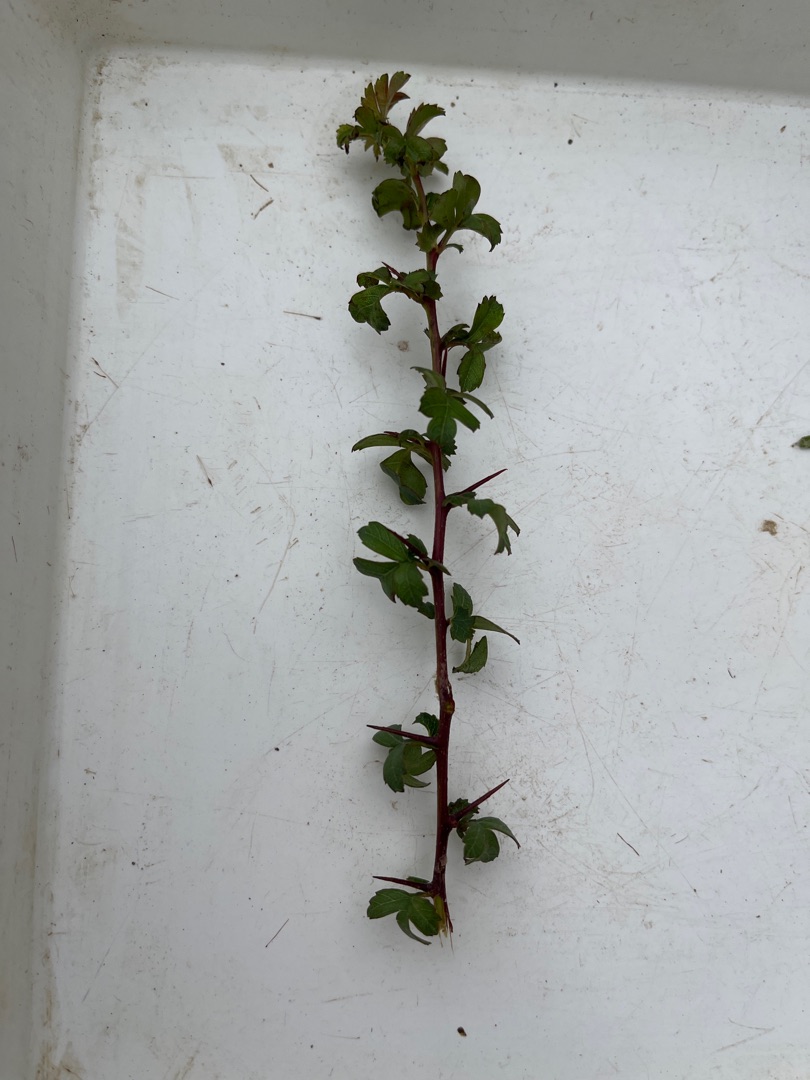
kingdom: Plantae
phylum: Tracheophyta
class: Magnoliopsida
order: Rosales
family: Rosaceae
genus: Crataegus
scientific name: Crataegus monogyna
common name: Engriflet hvidtjørn
